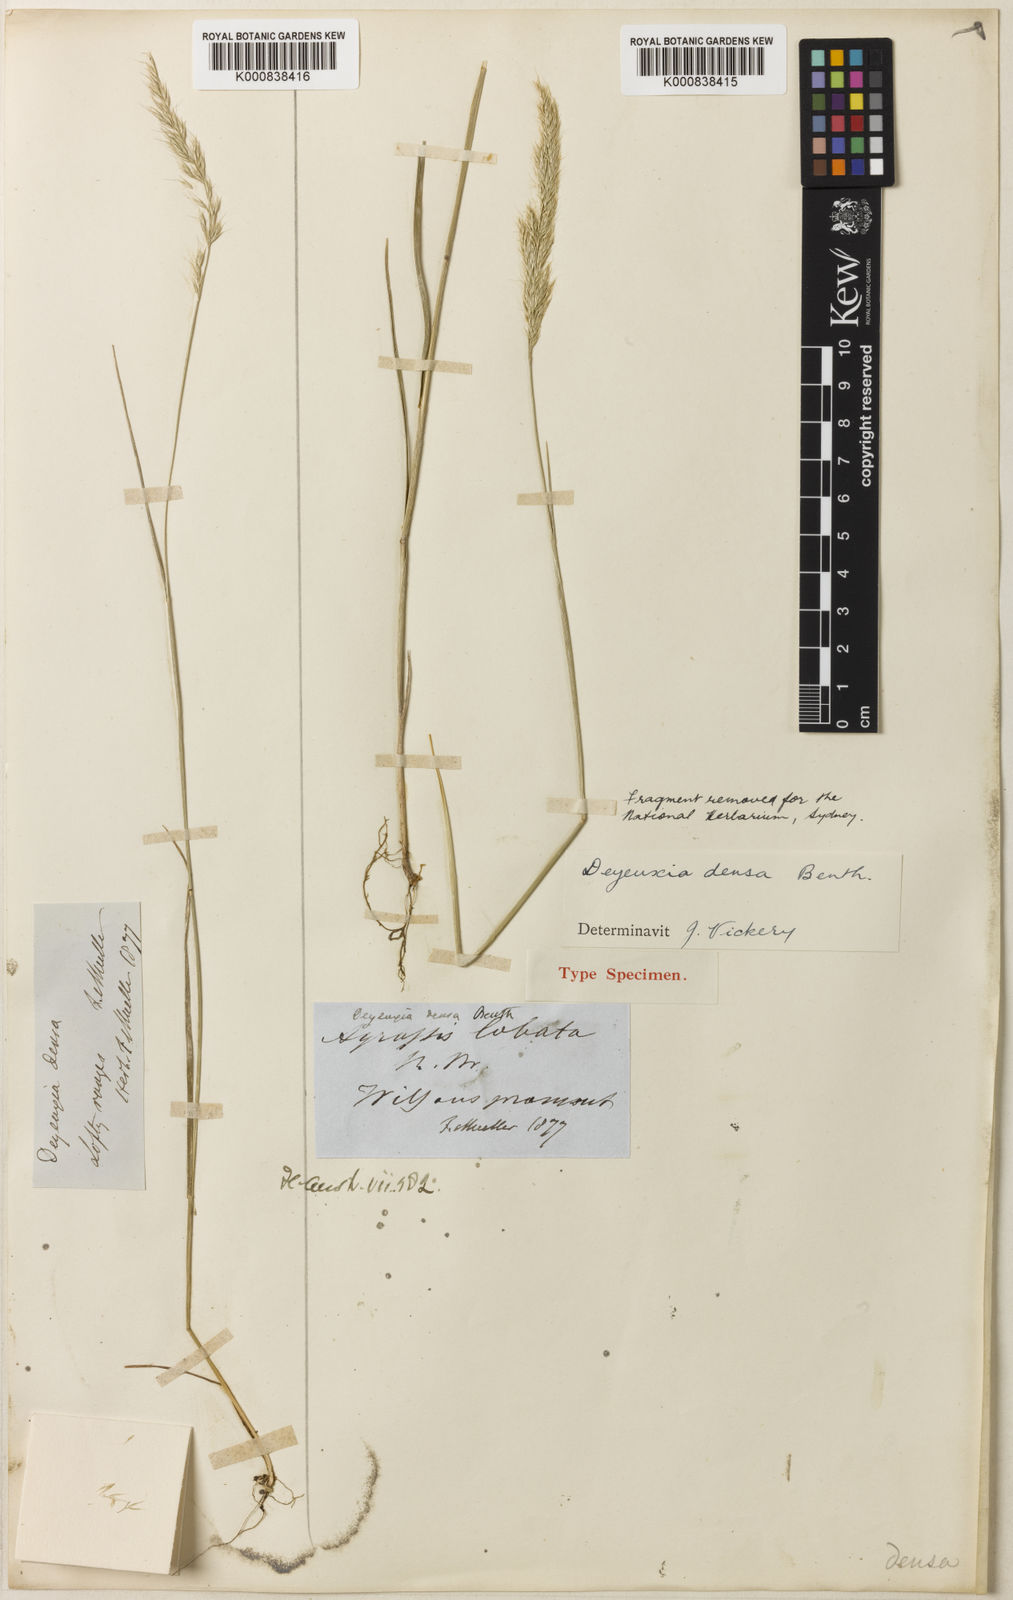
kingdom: Plantae
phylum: Tracheophyta
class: Liliopsida
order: Poales
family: Poaceae
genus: Calamagrostis
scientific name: Calamagrostis austrodensa
